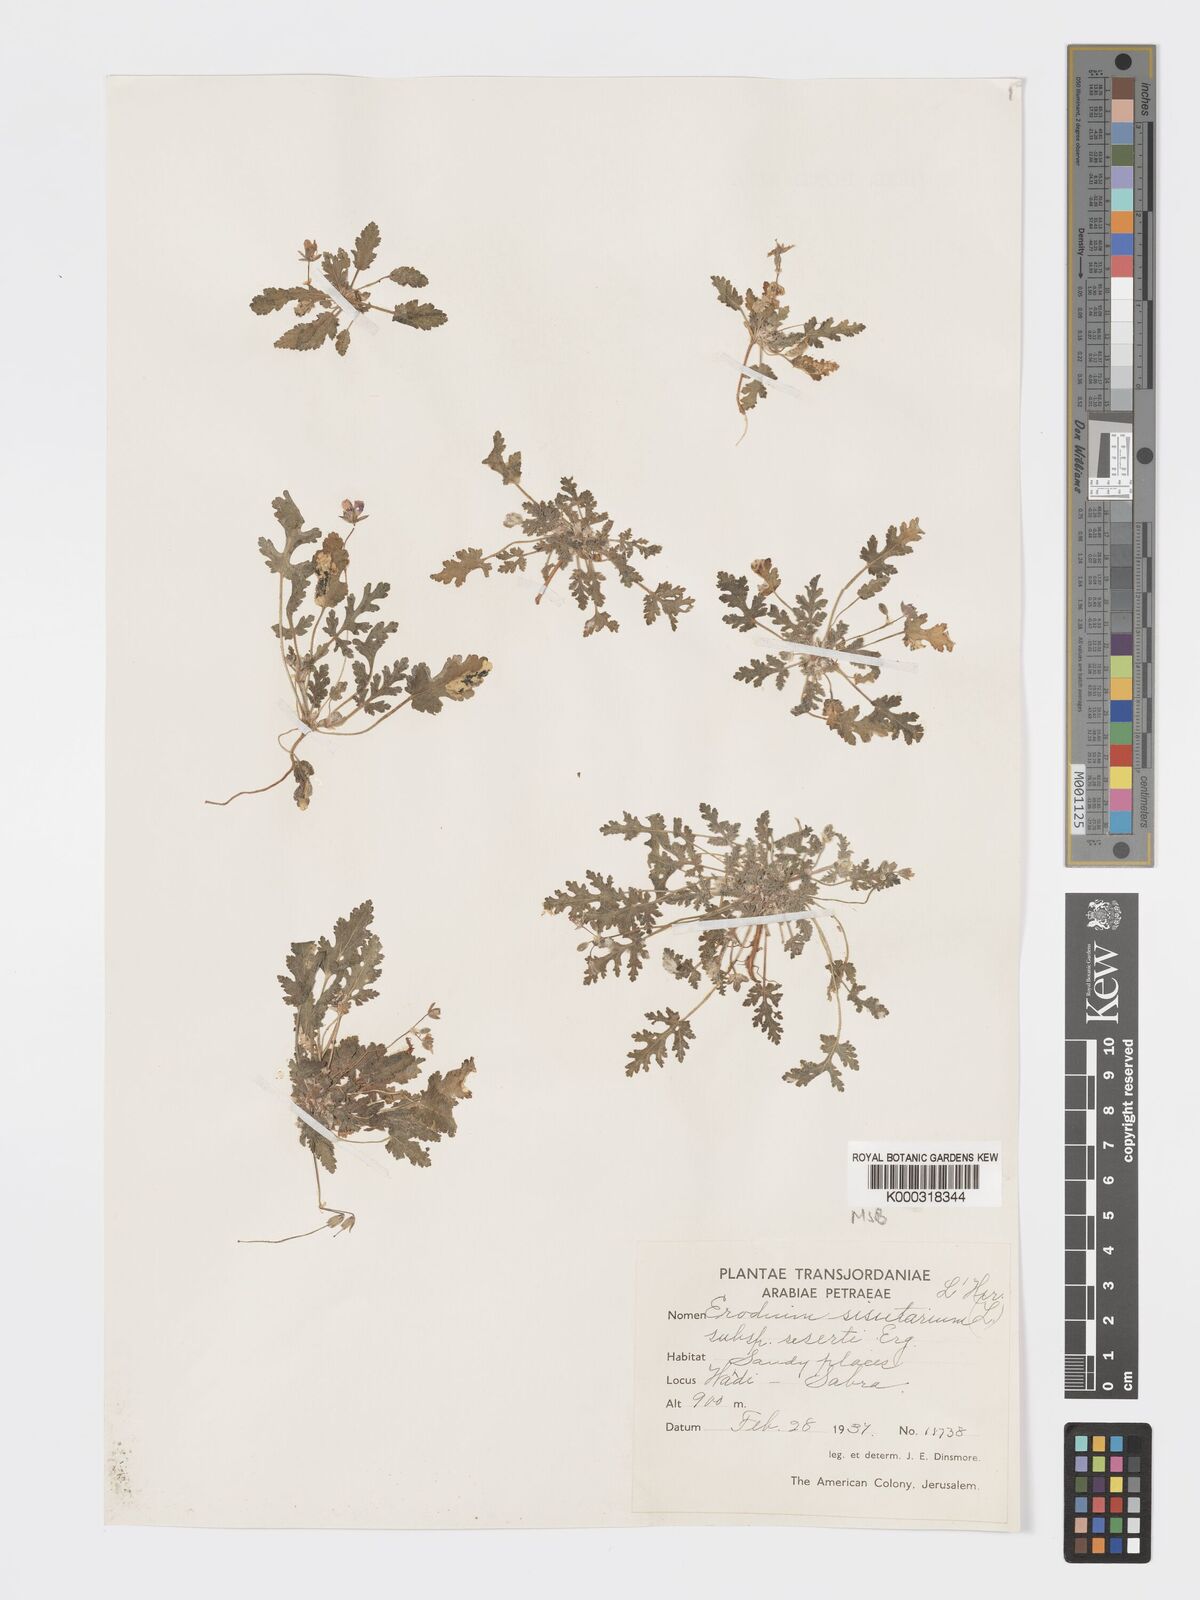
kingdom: Plantae
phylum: Tracheophyta
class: Magnoliopsida
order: Geraniales
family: Geraniaceae
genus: Erodium
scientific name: Erodium laciniatum
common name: Cutleaf stork's bill
